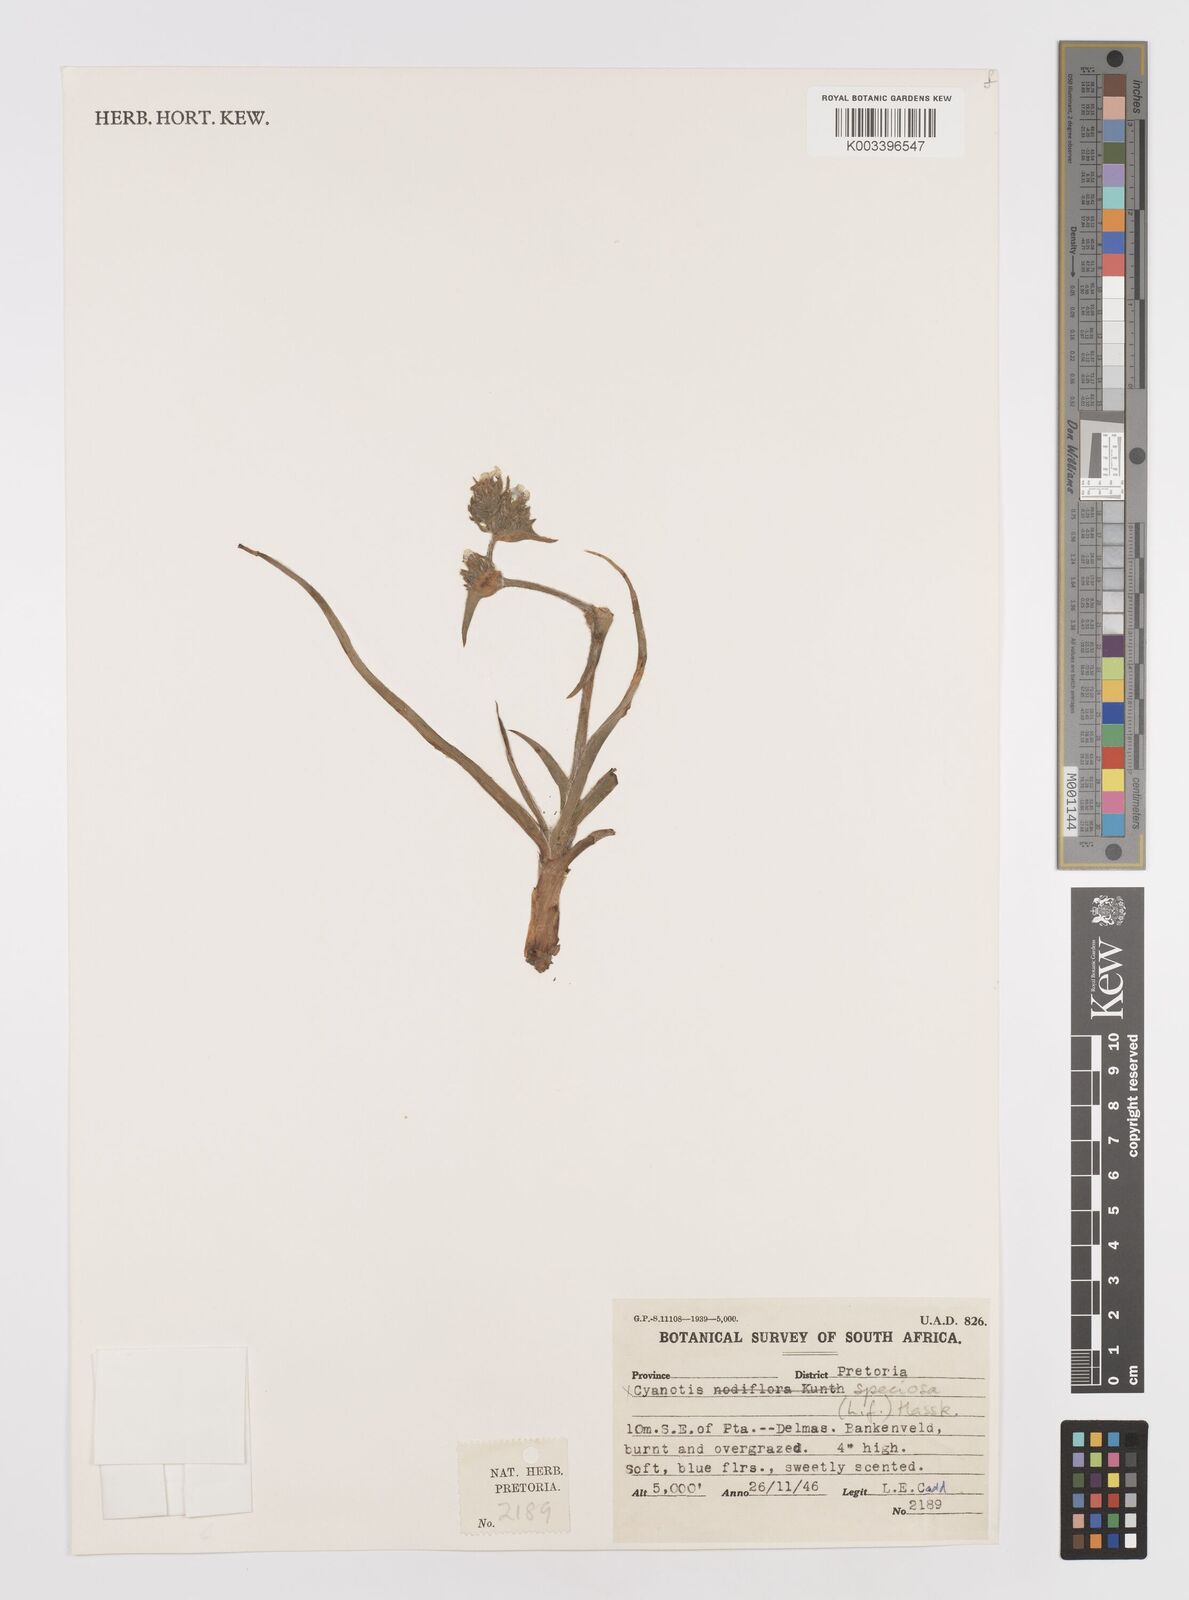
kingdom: Plantae
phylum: Tracheophyta
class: Liliopsida
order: Commelinales
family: Commelinaceae
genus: Cyanotis
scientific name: Cyanotis speciosa
